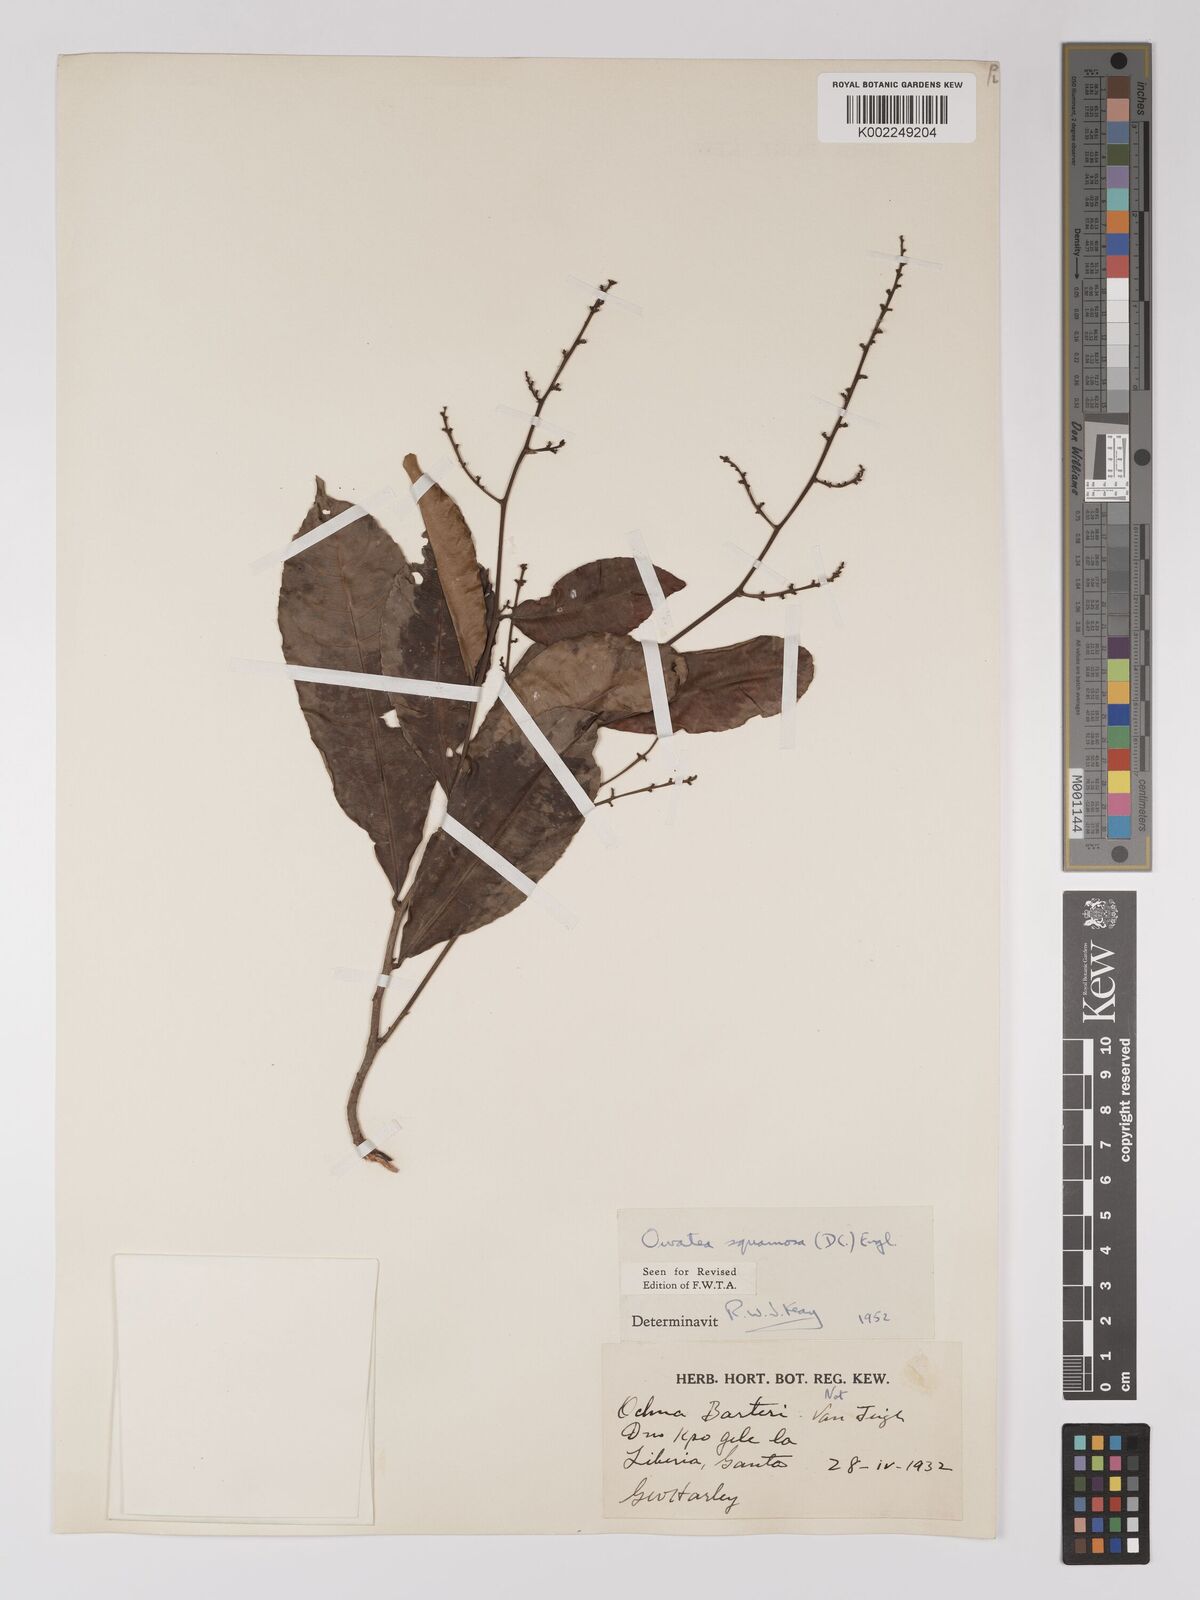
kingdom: Plantae
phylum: Tracheophyta
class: Magnoliopsida
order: Malpighiales
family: Ochnaceae
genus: Campylospermum
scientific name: Campylospermum squamosum
